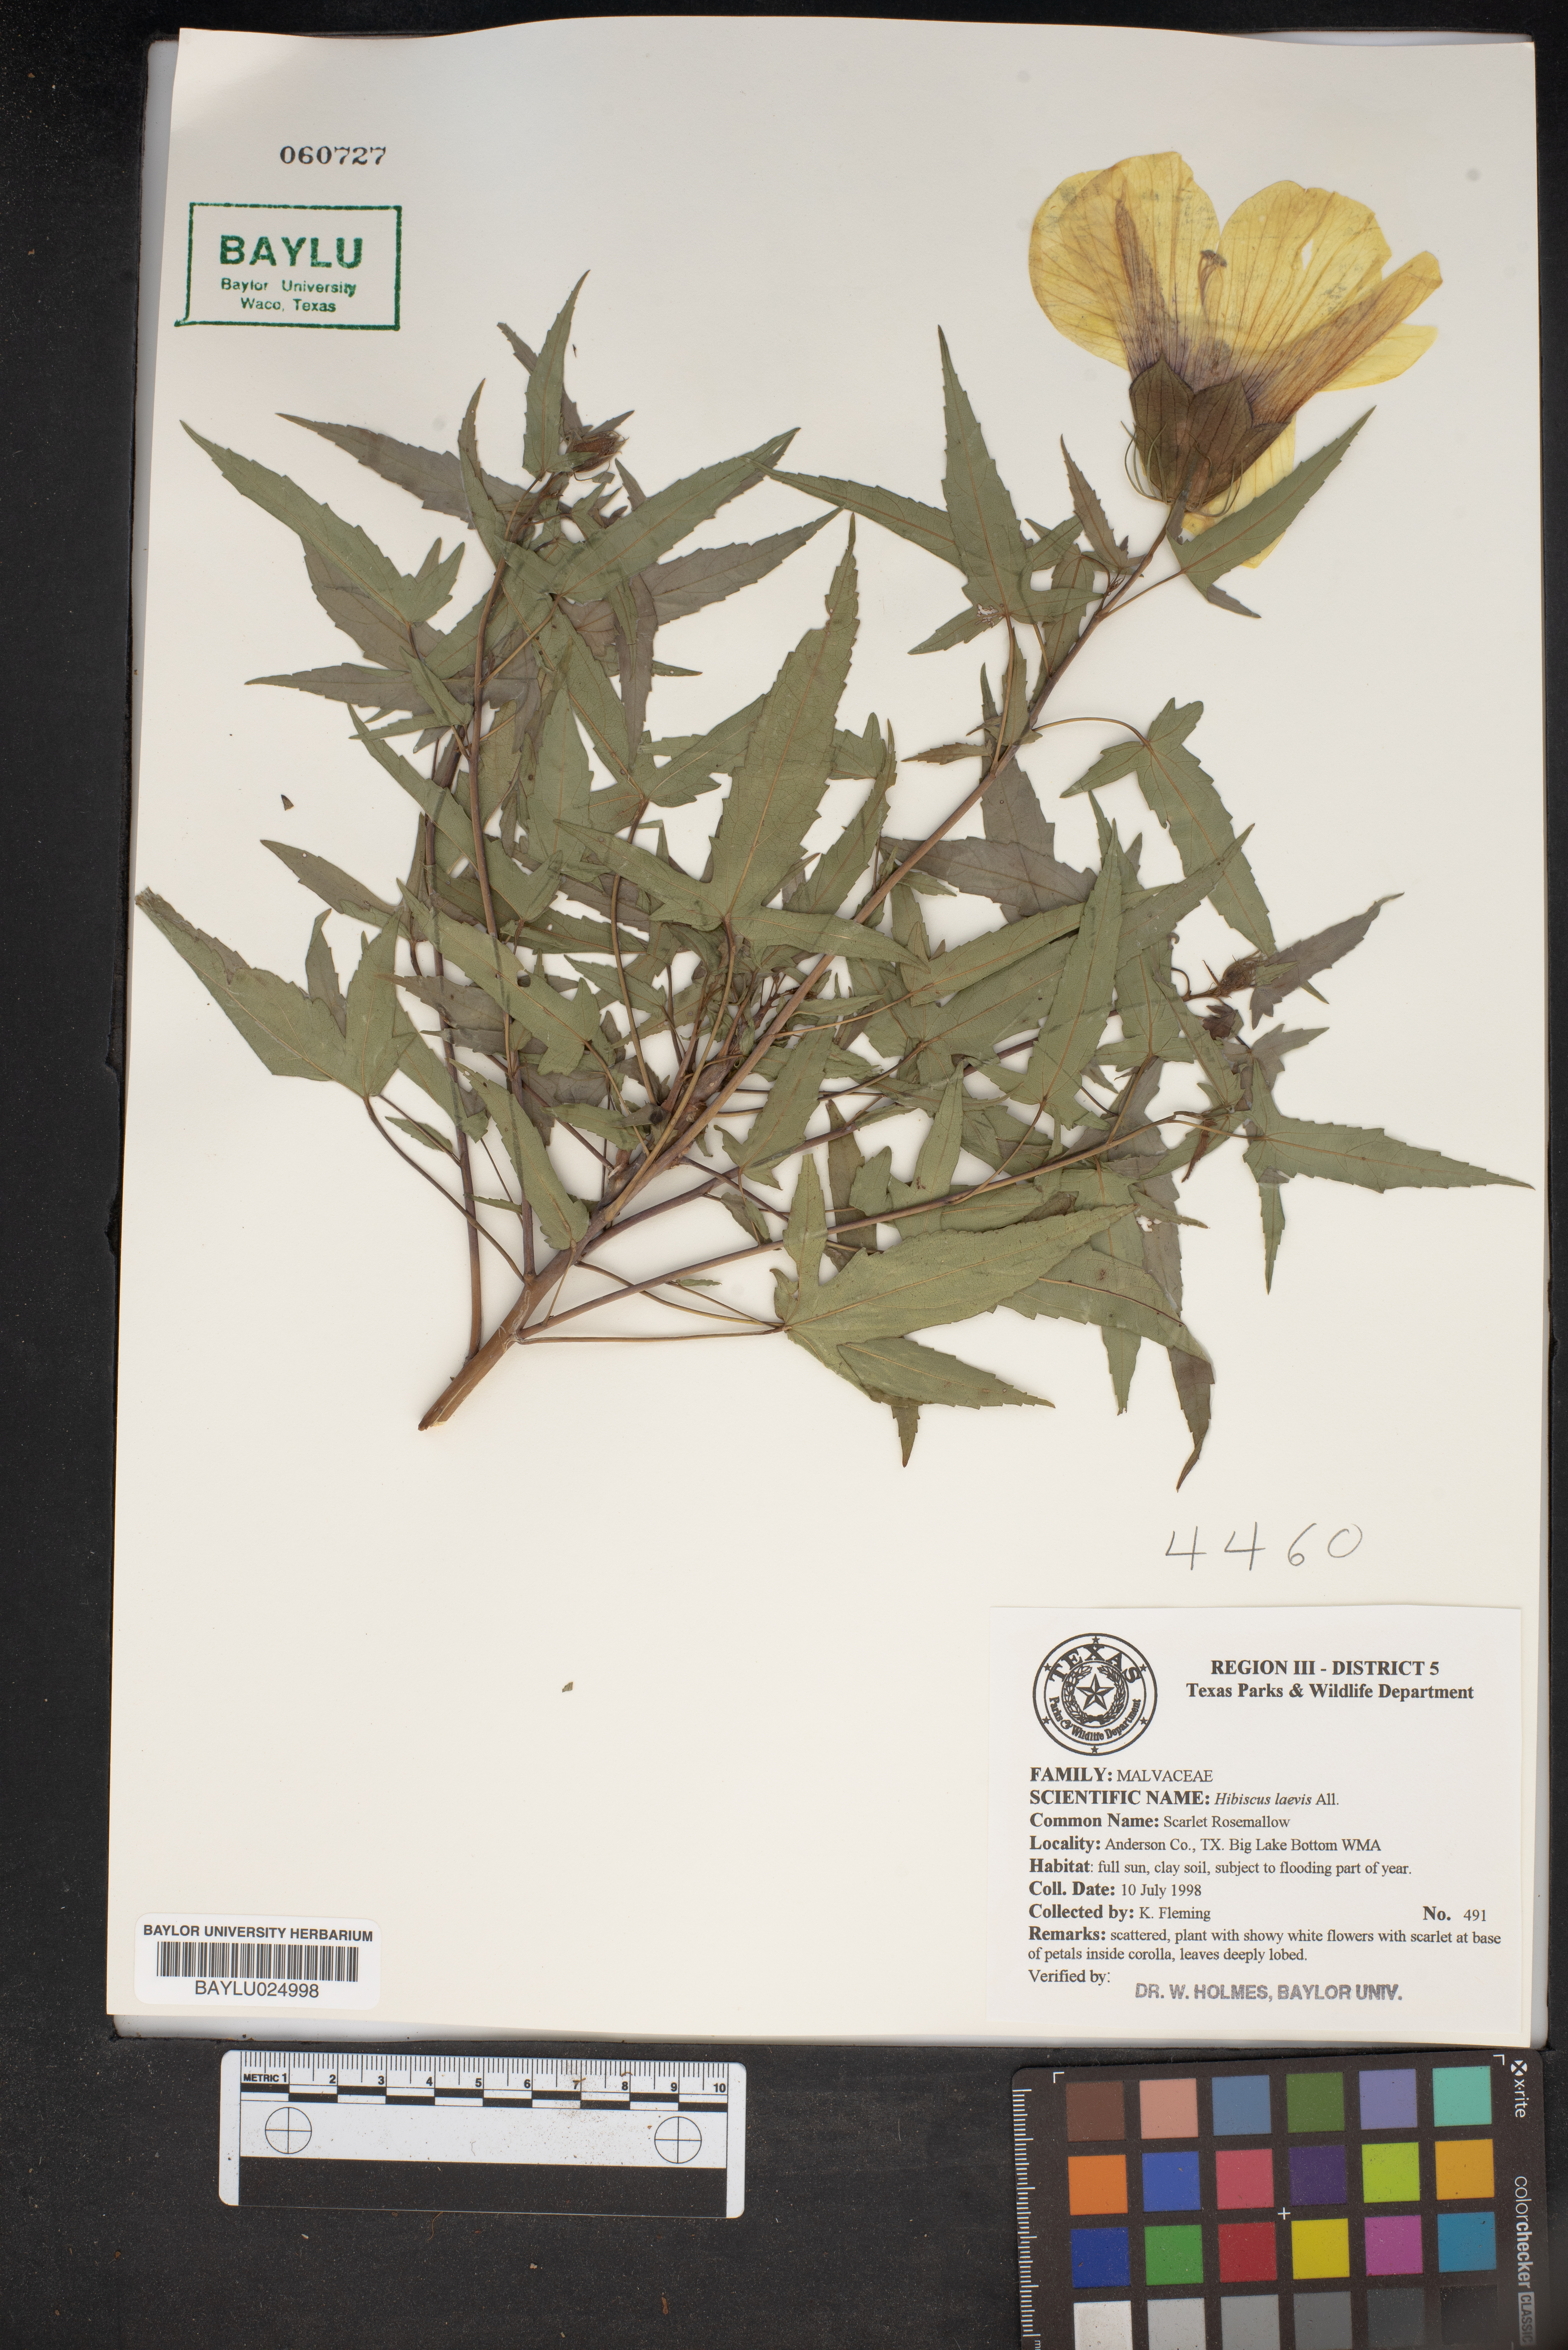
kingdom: Plantae
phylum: Tracheophyta
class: Magnoliopsida
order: Malvales
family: Malvaceae
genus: Hibiscus
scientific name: Hibiscus laevis
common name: Scarlet rose-mallow
